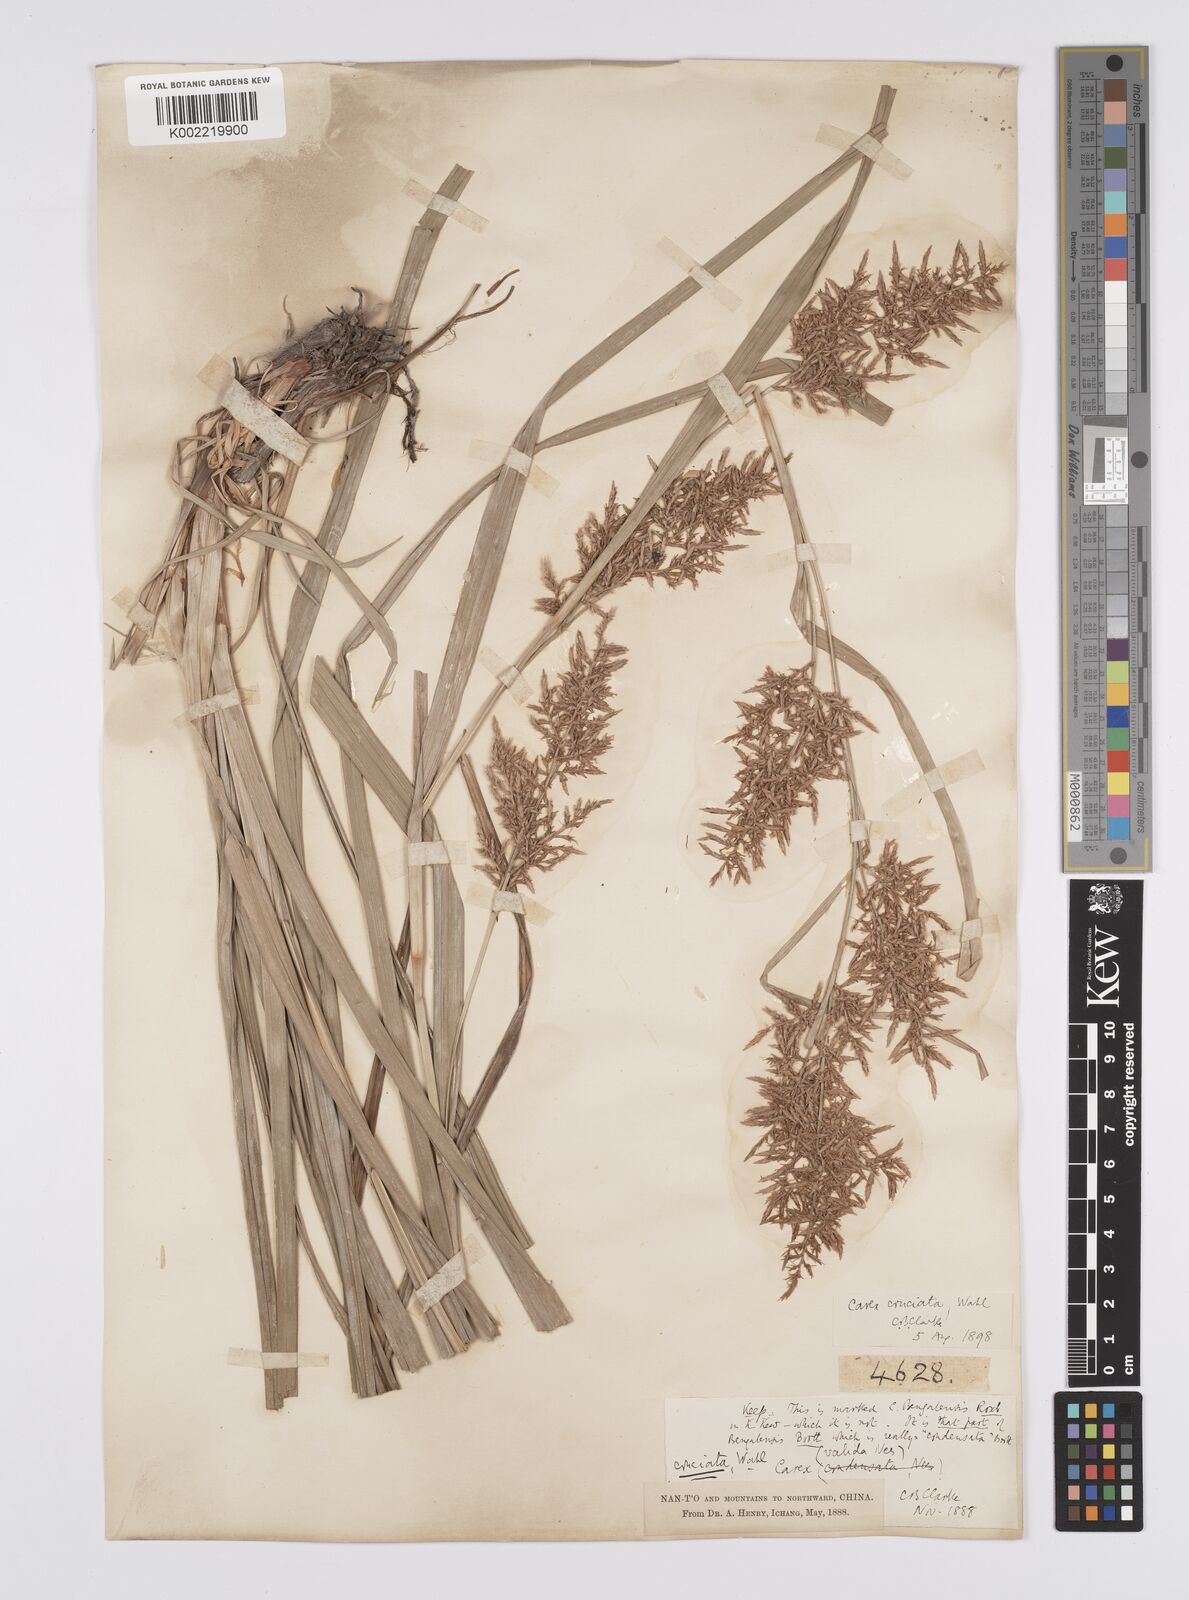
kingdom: Plantae
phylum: Tracheophyta
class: Liliopsida
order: Poales
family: Cyperaceae
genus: Carex
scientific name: Carex cruciata
